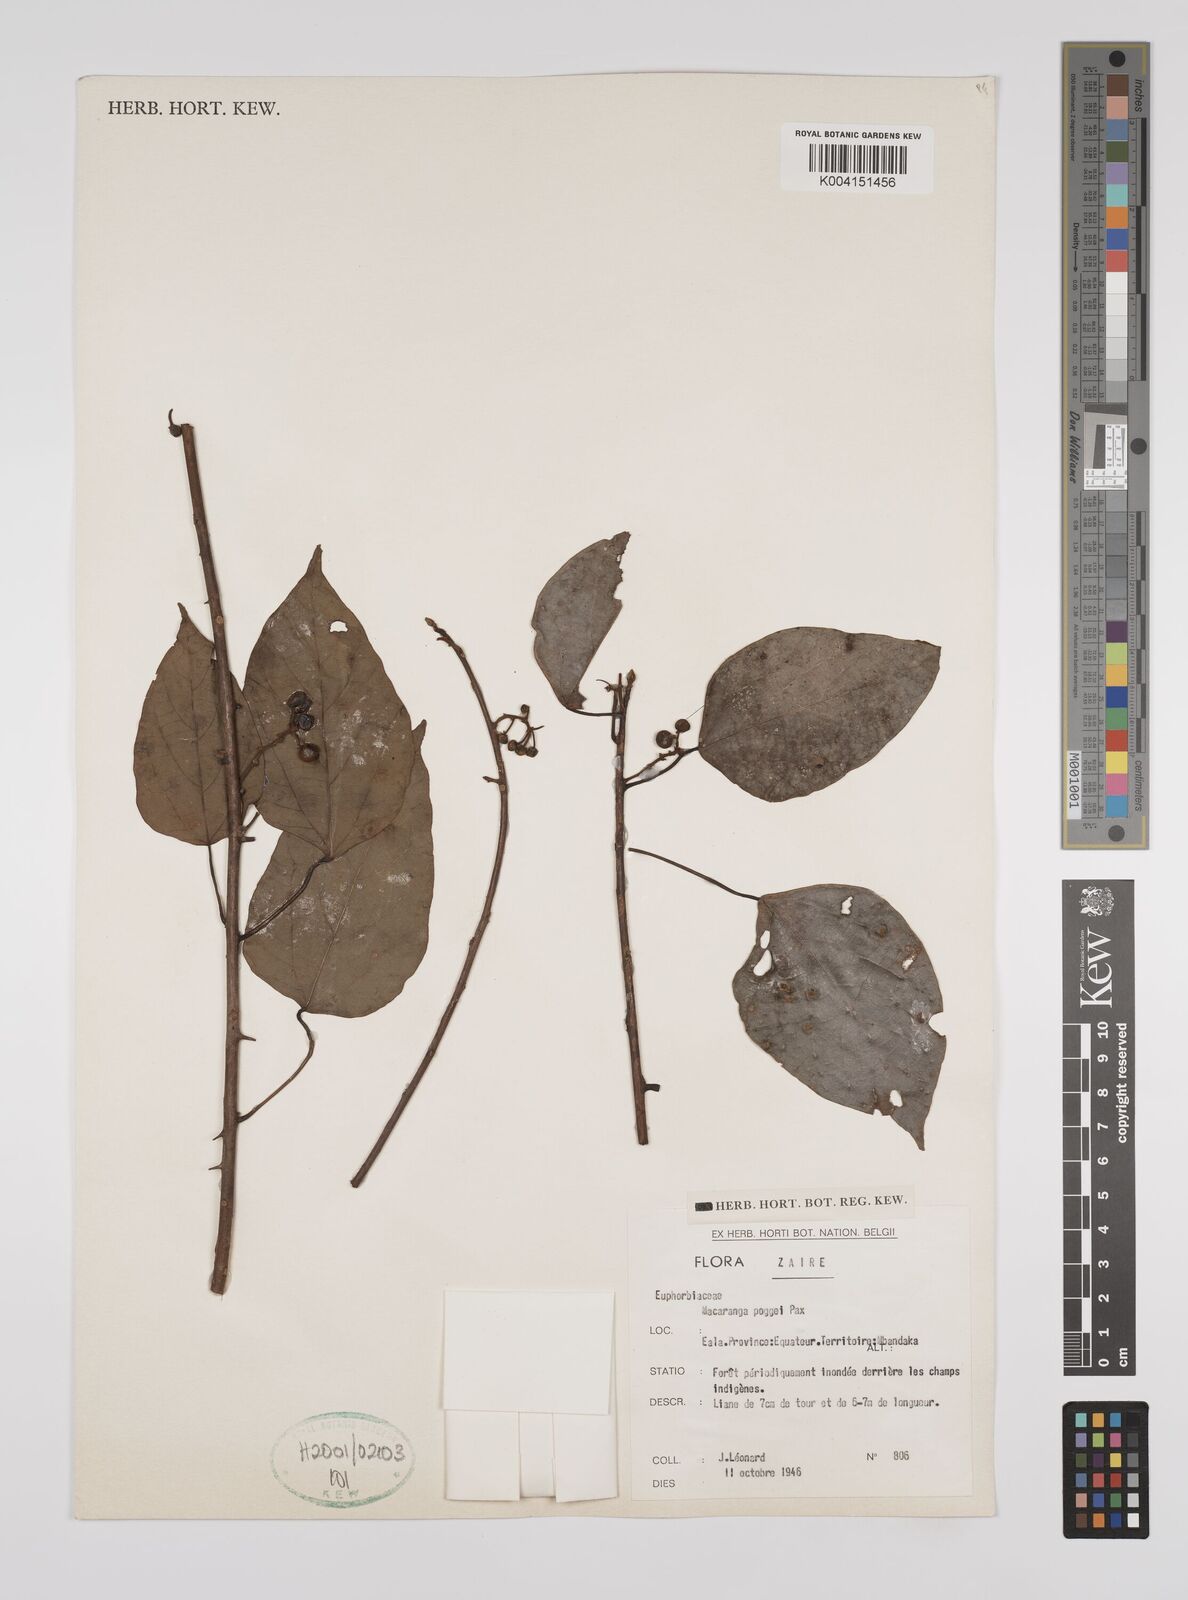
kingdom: Plantae
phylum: Tracheophyta
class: Magnoliopsida
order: Malpighiales
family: Euphorbiaceae
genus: Macaranga
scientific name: Macaranga poggei
